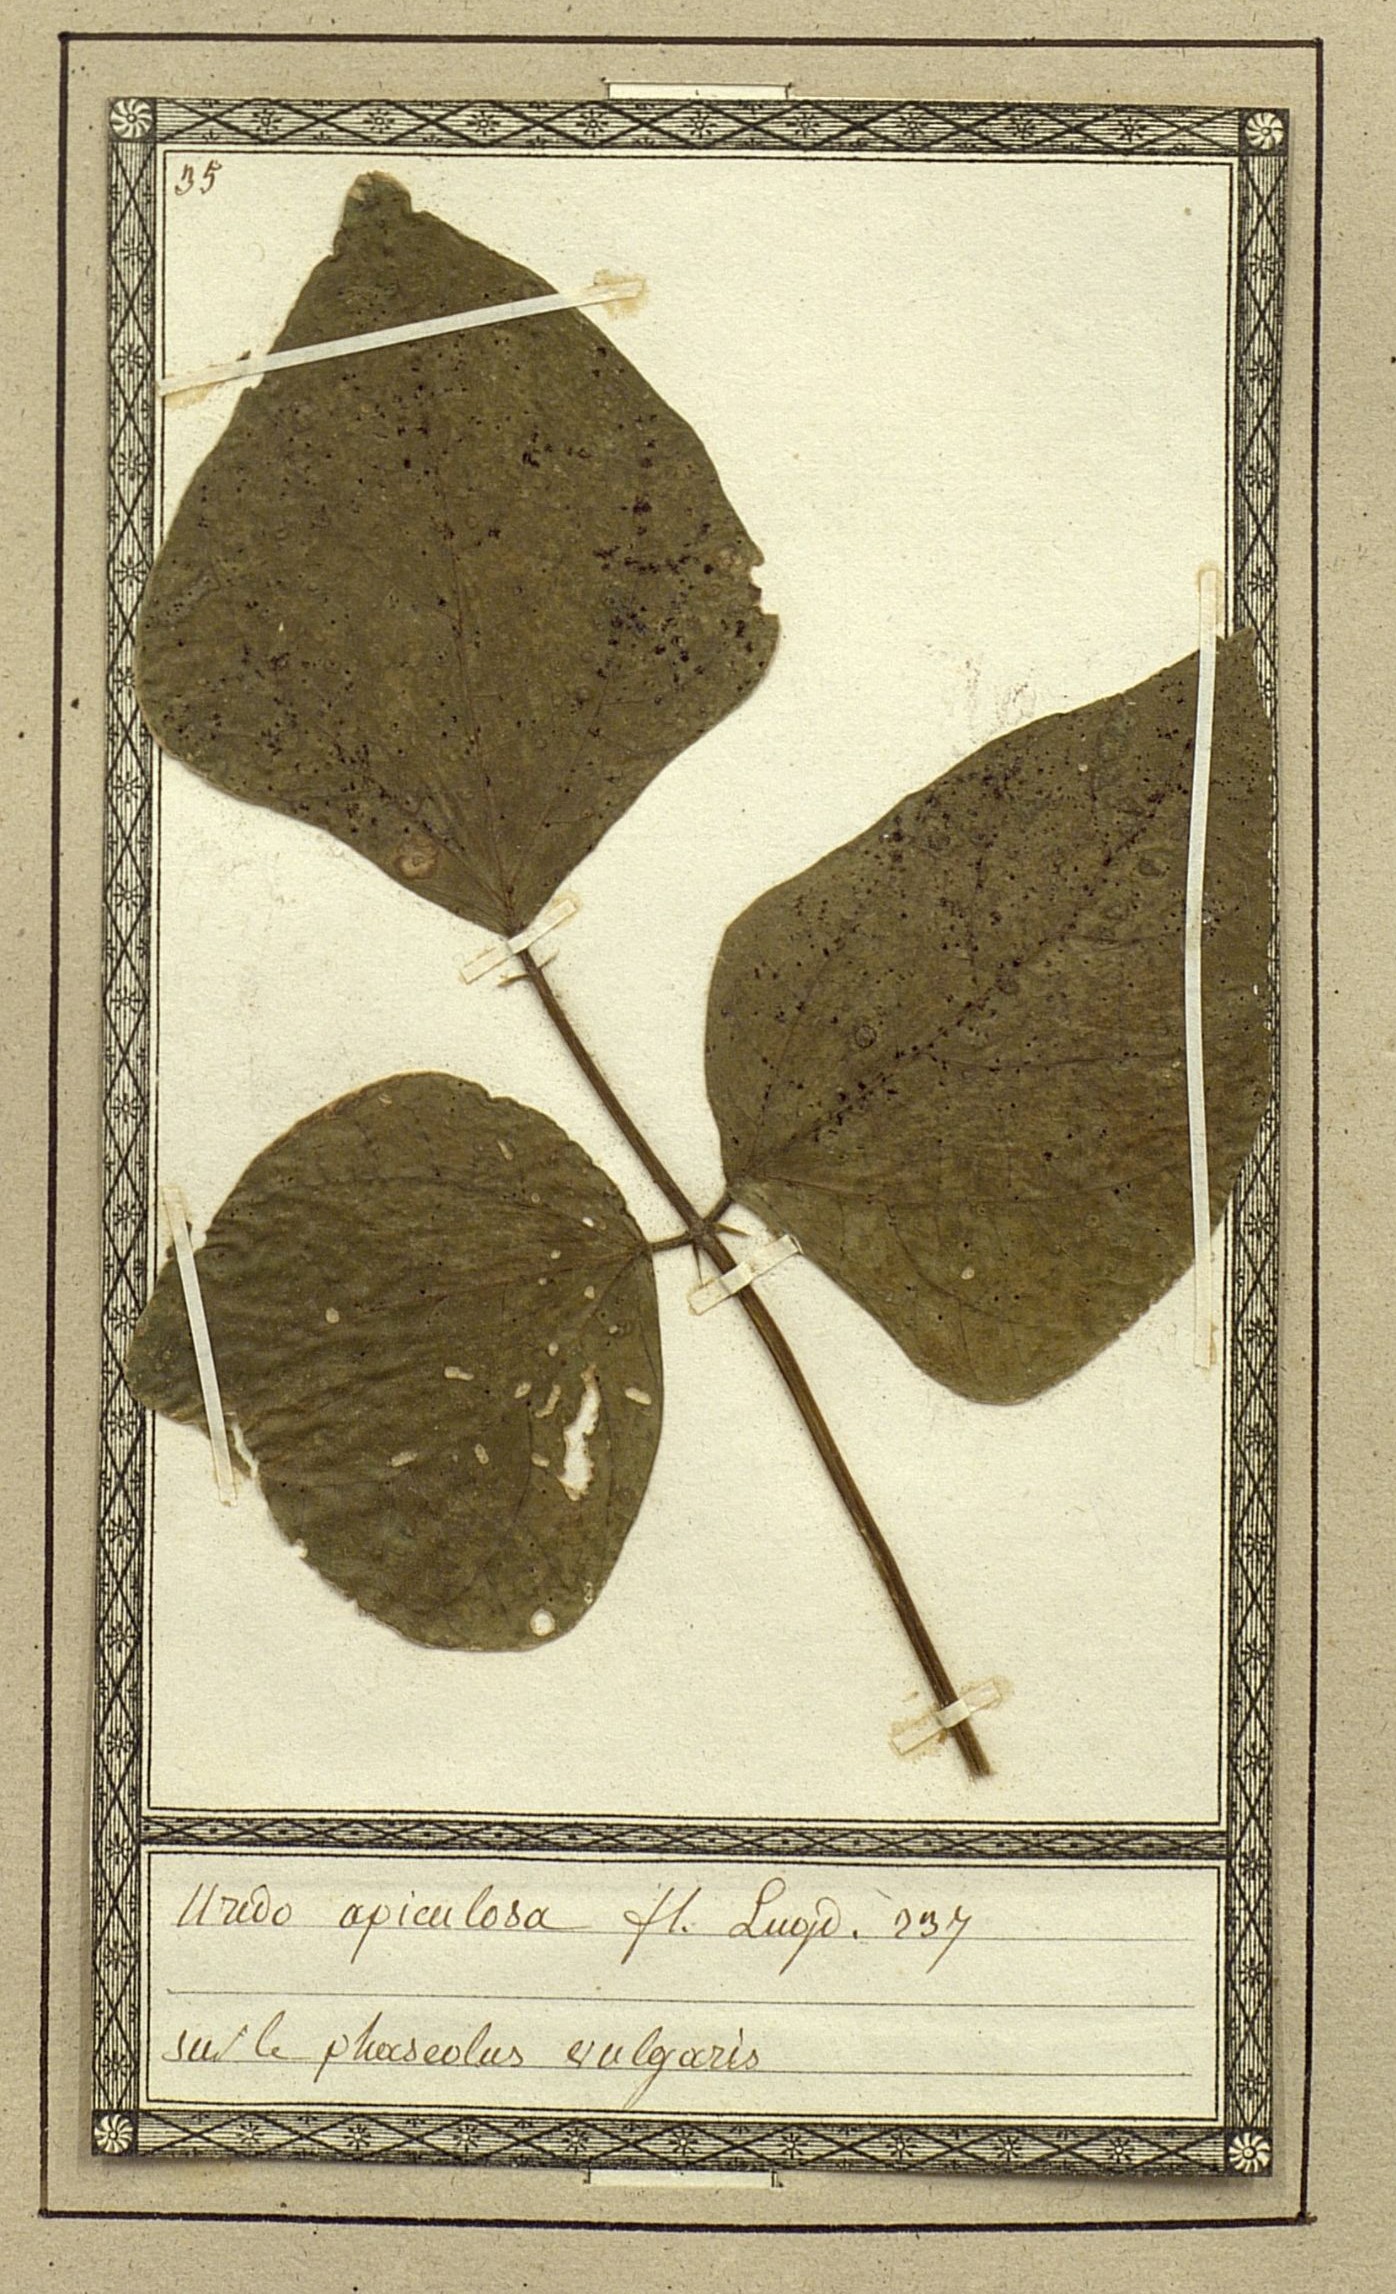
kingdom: Fungi
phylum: Basidiomycota
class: Pucciniomycetes
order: Pucciniales
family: Pucciniaceae
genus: Puccinia
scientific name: Puccinia acetosae
